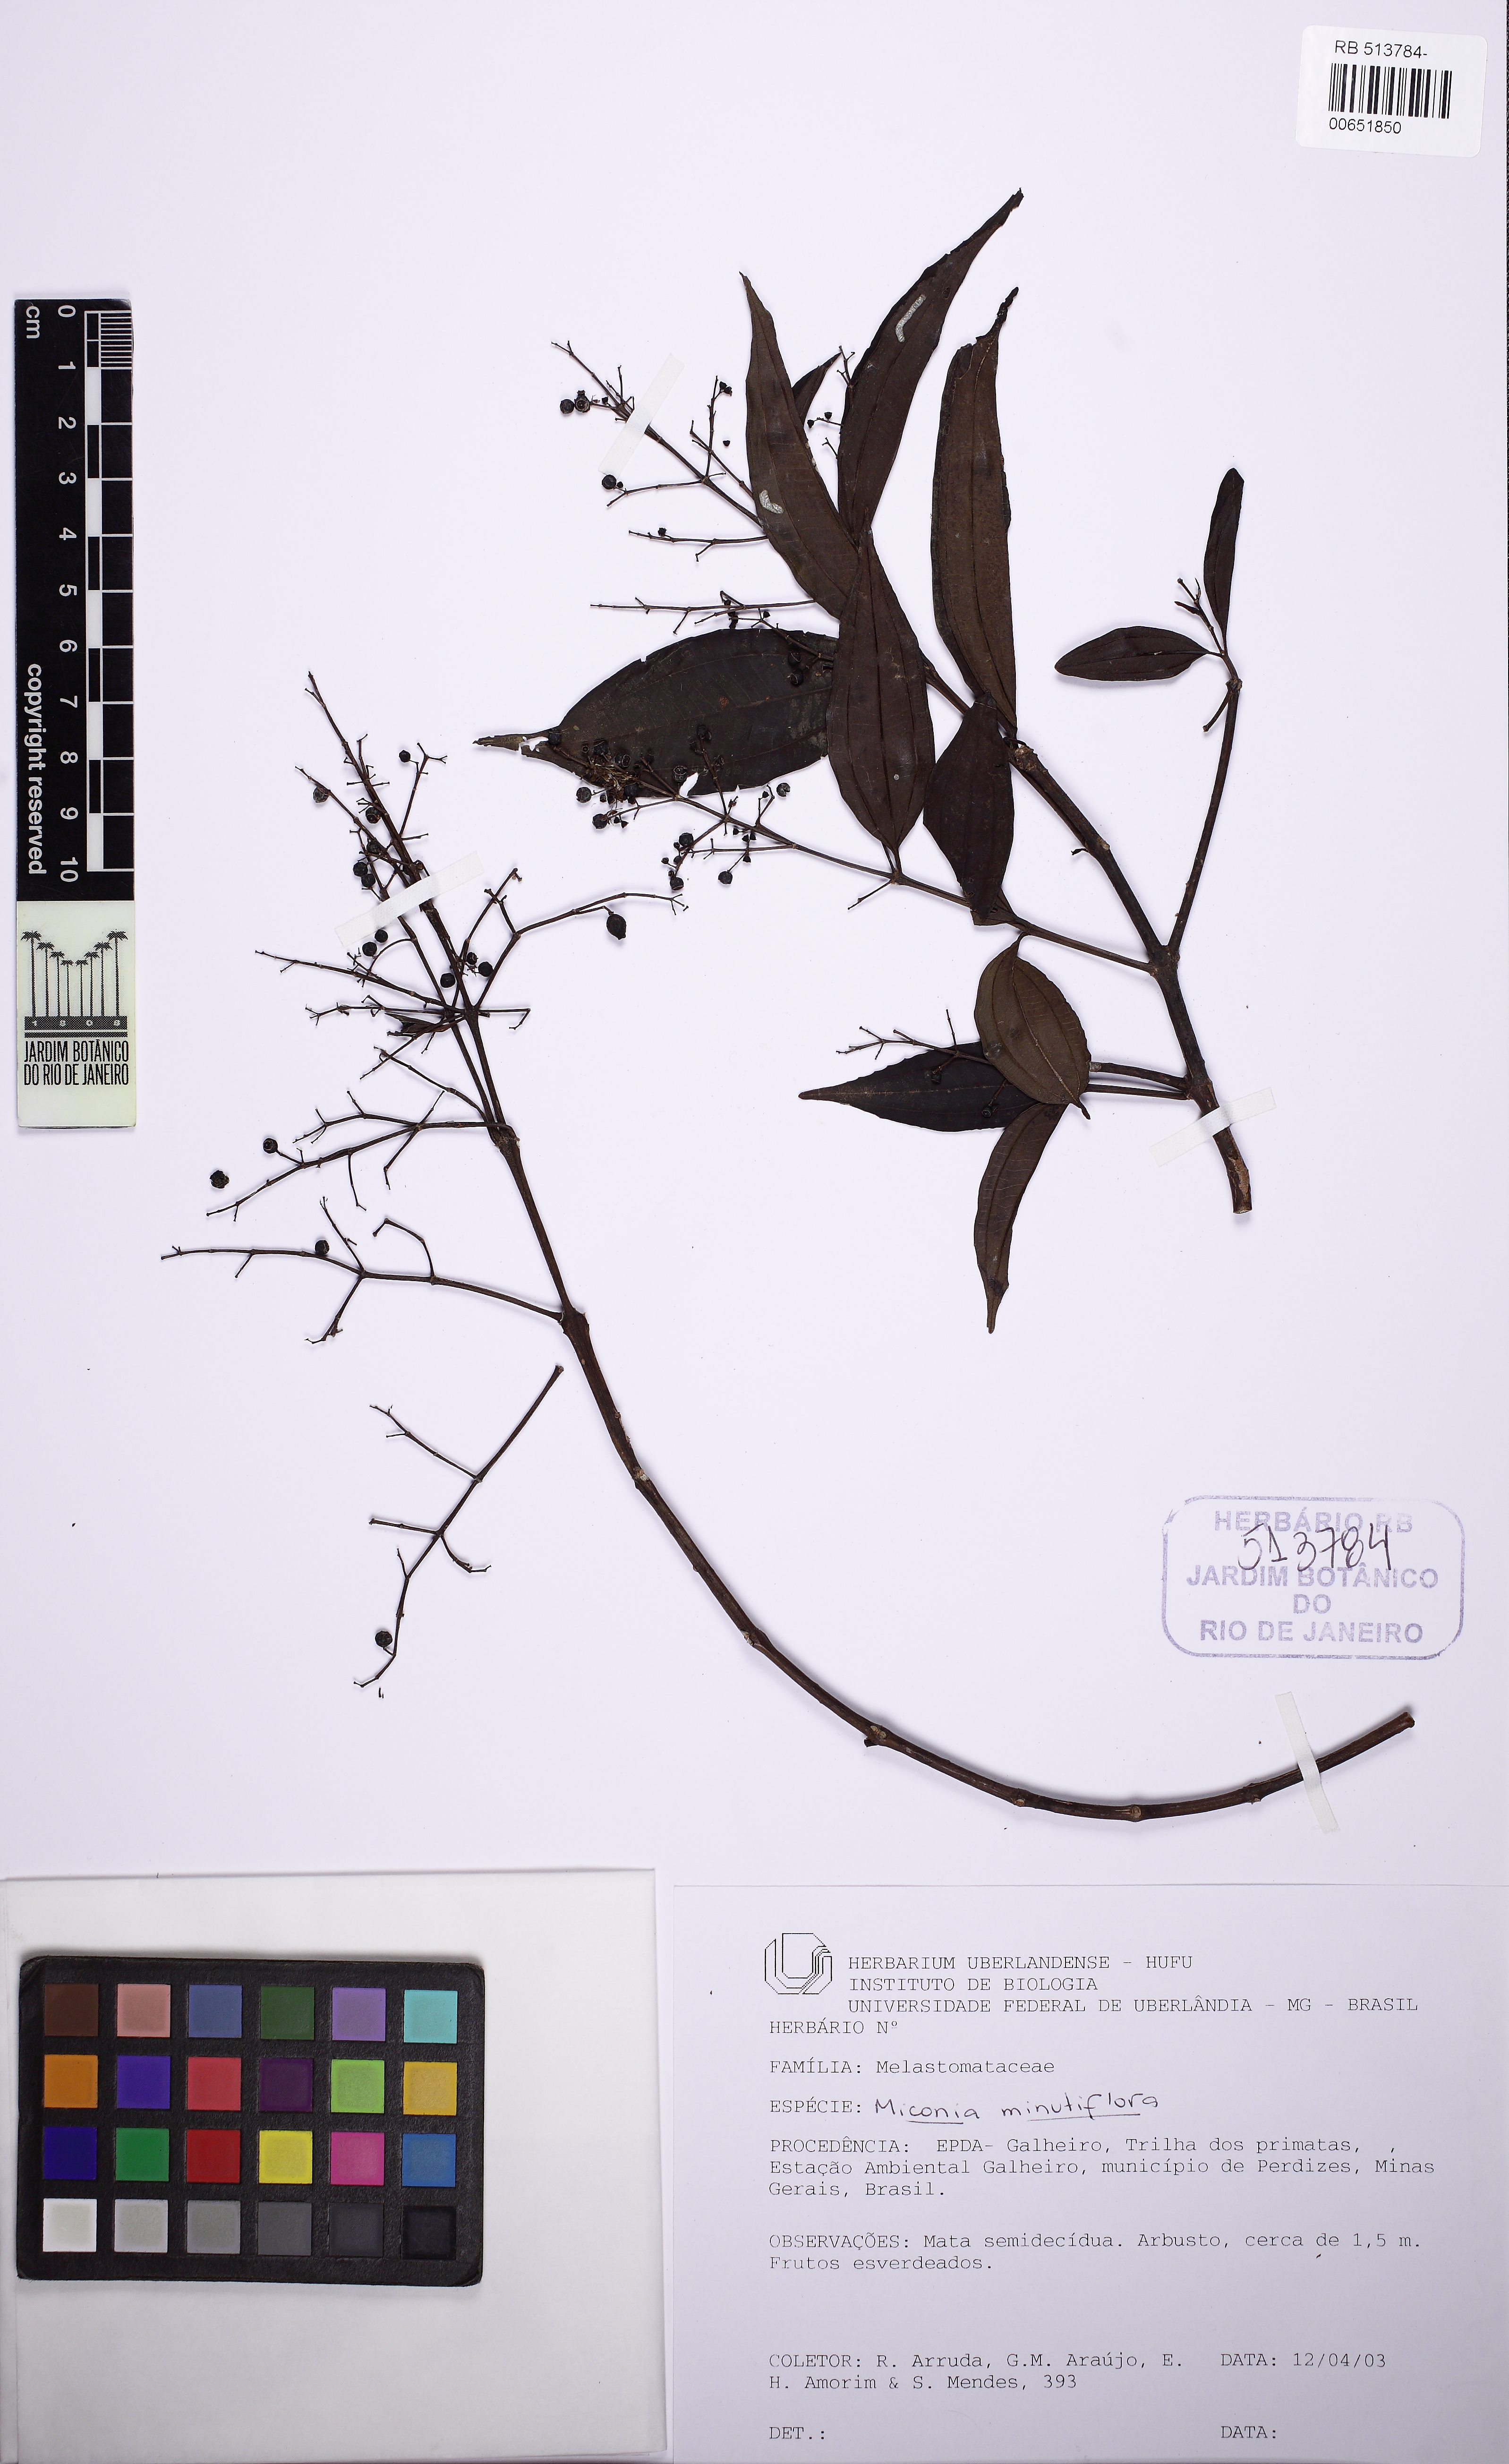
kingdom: Plantae
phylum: Tracheophyta
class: Magnoliopsida
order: Myrtales
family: Melastomataceae
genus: Miconia
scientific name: Miconia minutiflora
